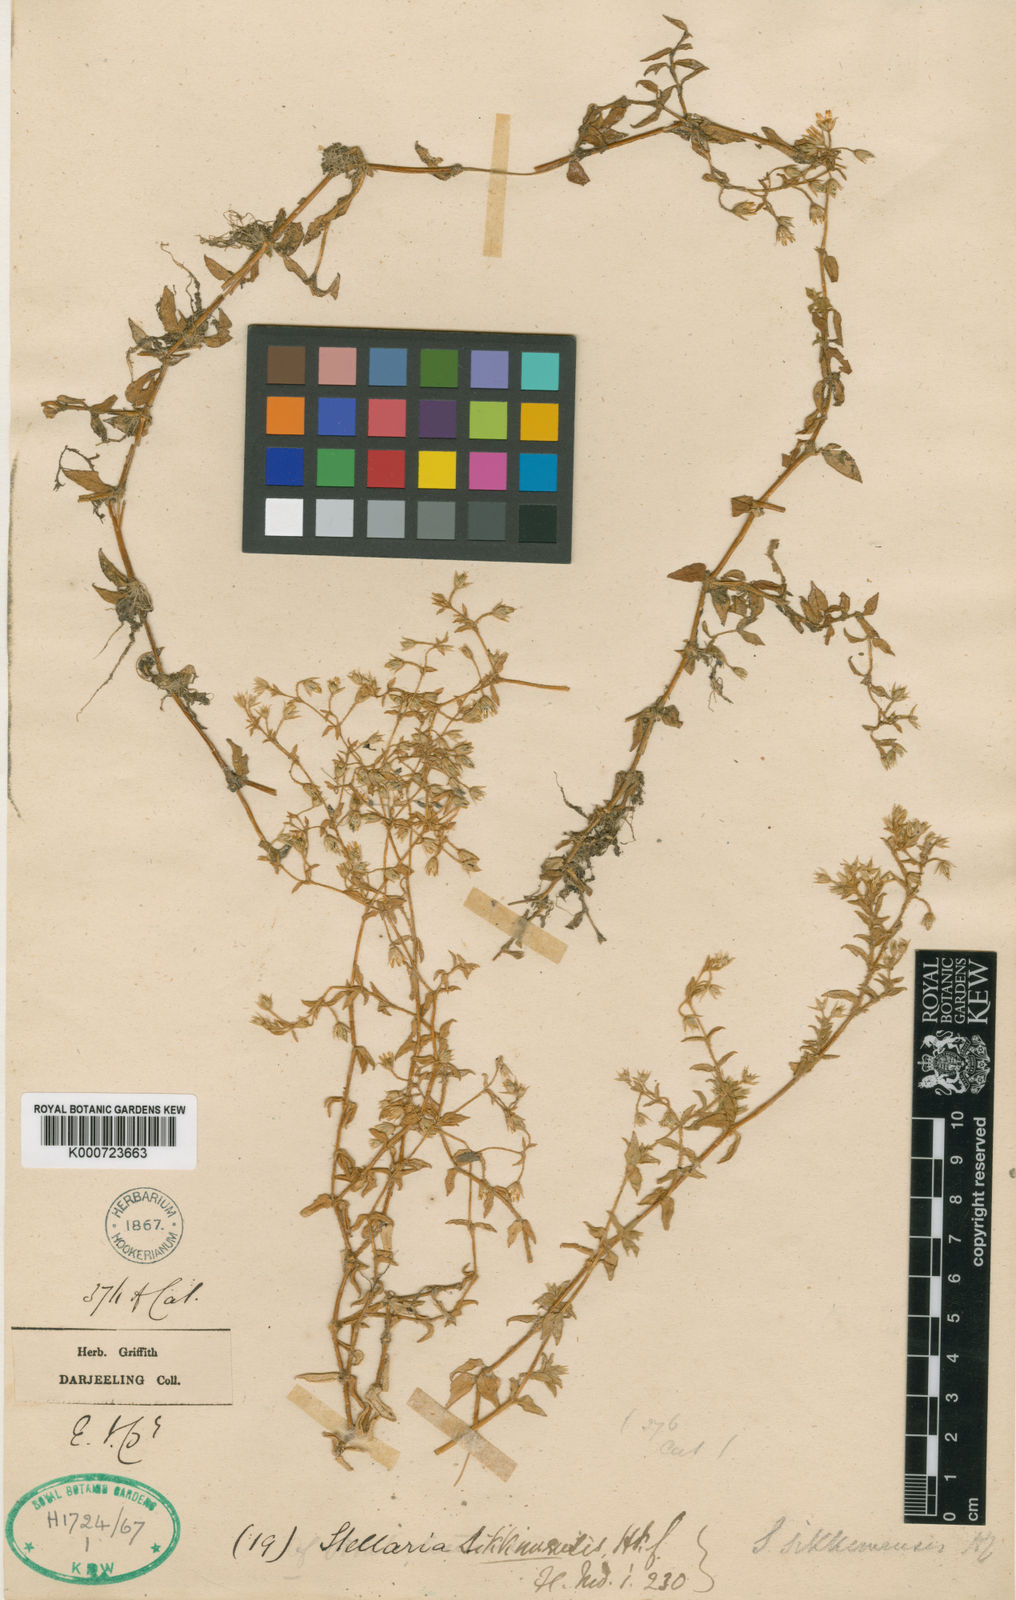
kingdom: Plantae
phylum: Tracheophyta
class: Magnoliopsida
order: Caryophyllales
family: Caryophyllaceae
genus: Stellaria
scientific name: Stellaria sikkimensis
